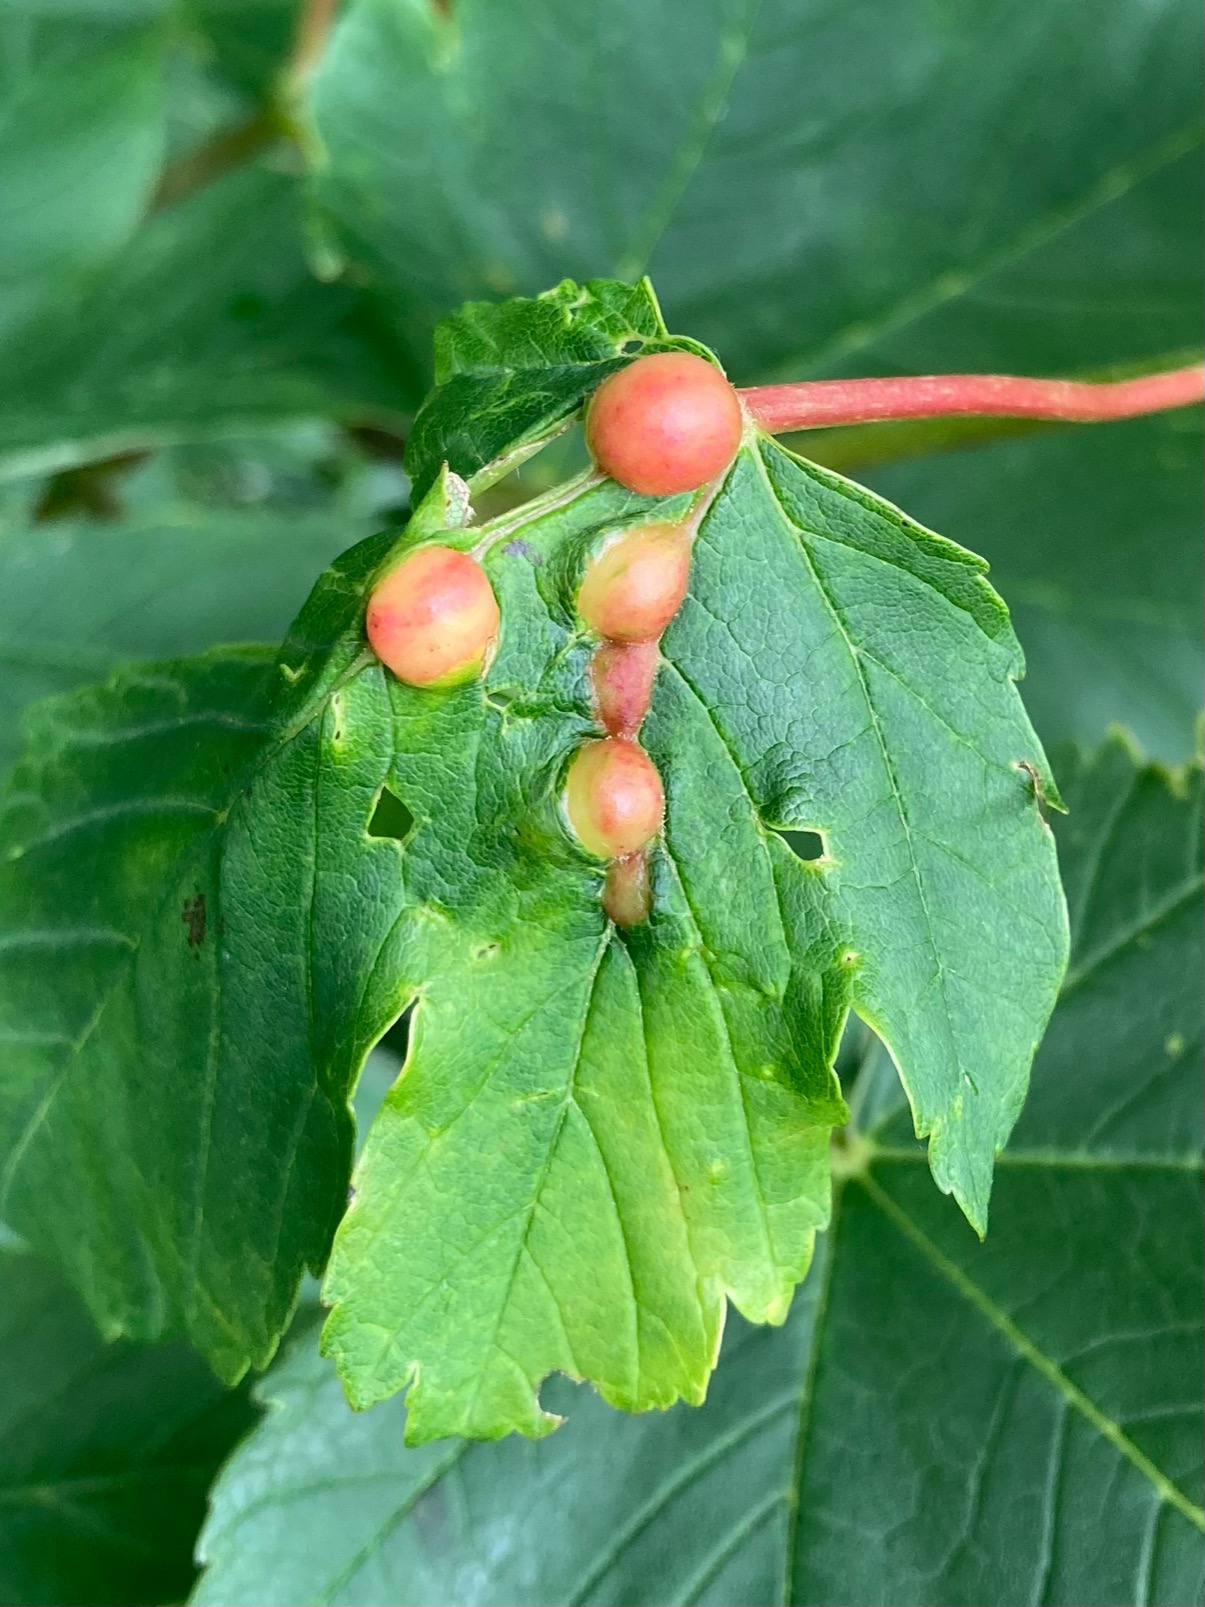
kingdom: Animalia
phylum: Arthropoda
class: Insecta
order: Hymenoptera
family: Cynipidae
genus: Pediaspis
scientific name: Pediaspis aceris
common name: Ahorngalhveps
